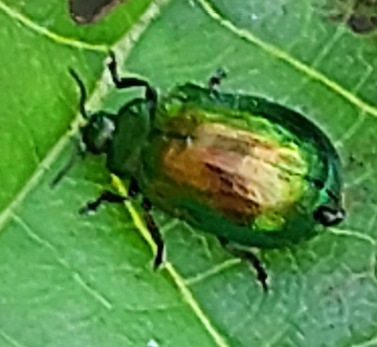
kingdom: Animalia
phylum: Arthropoda
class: Insecta
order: Coleoptera
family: Chrysomelidae
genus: Plagiosterna
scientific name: Plagiosterna aenea
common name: Blågrøn ellebladbille
